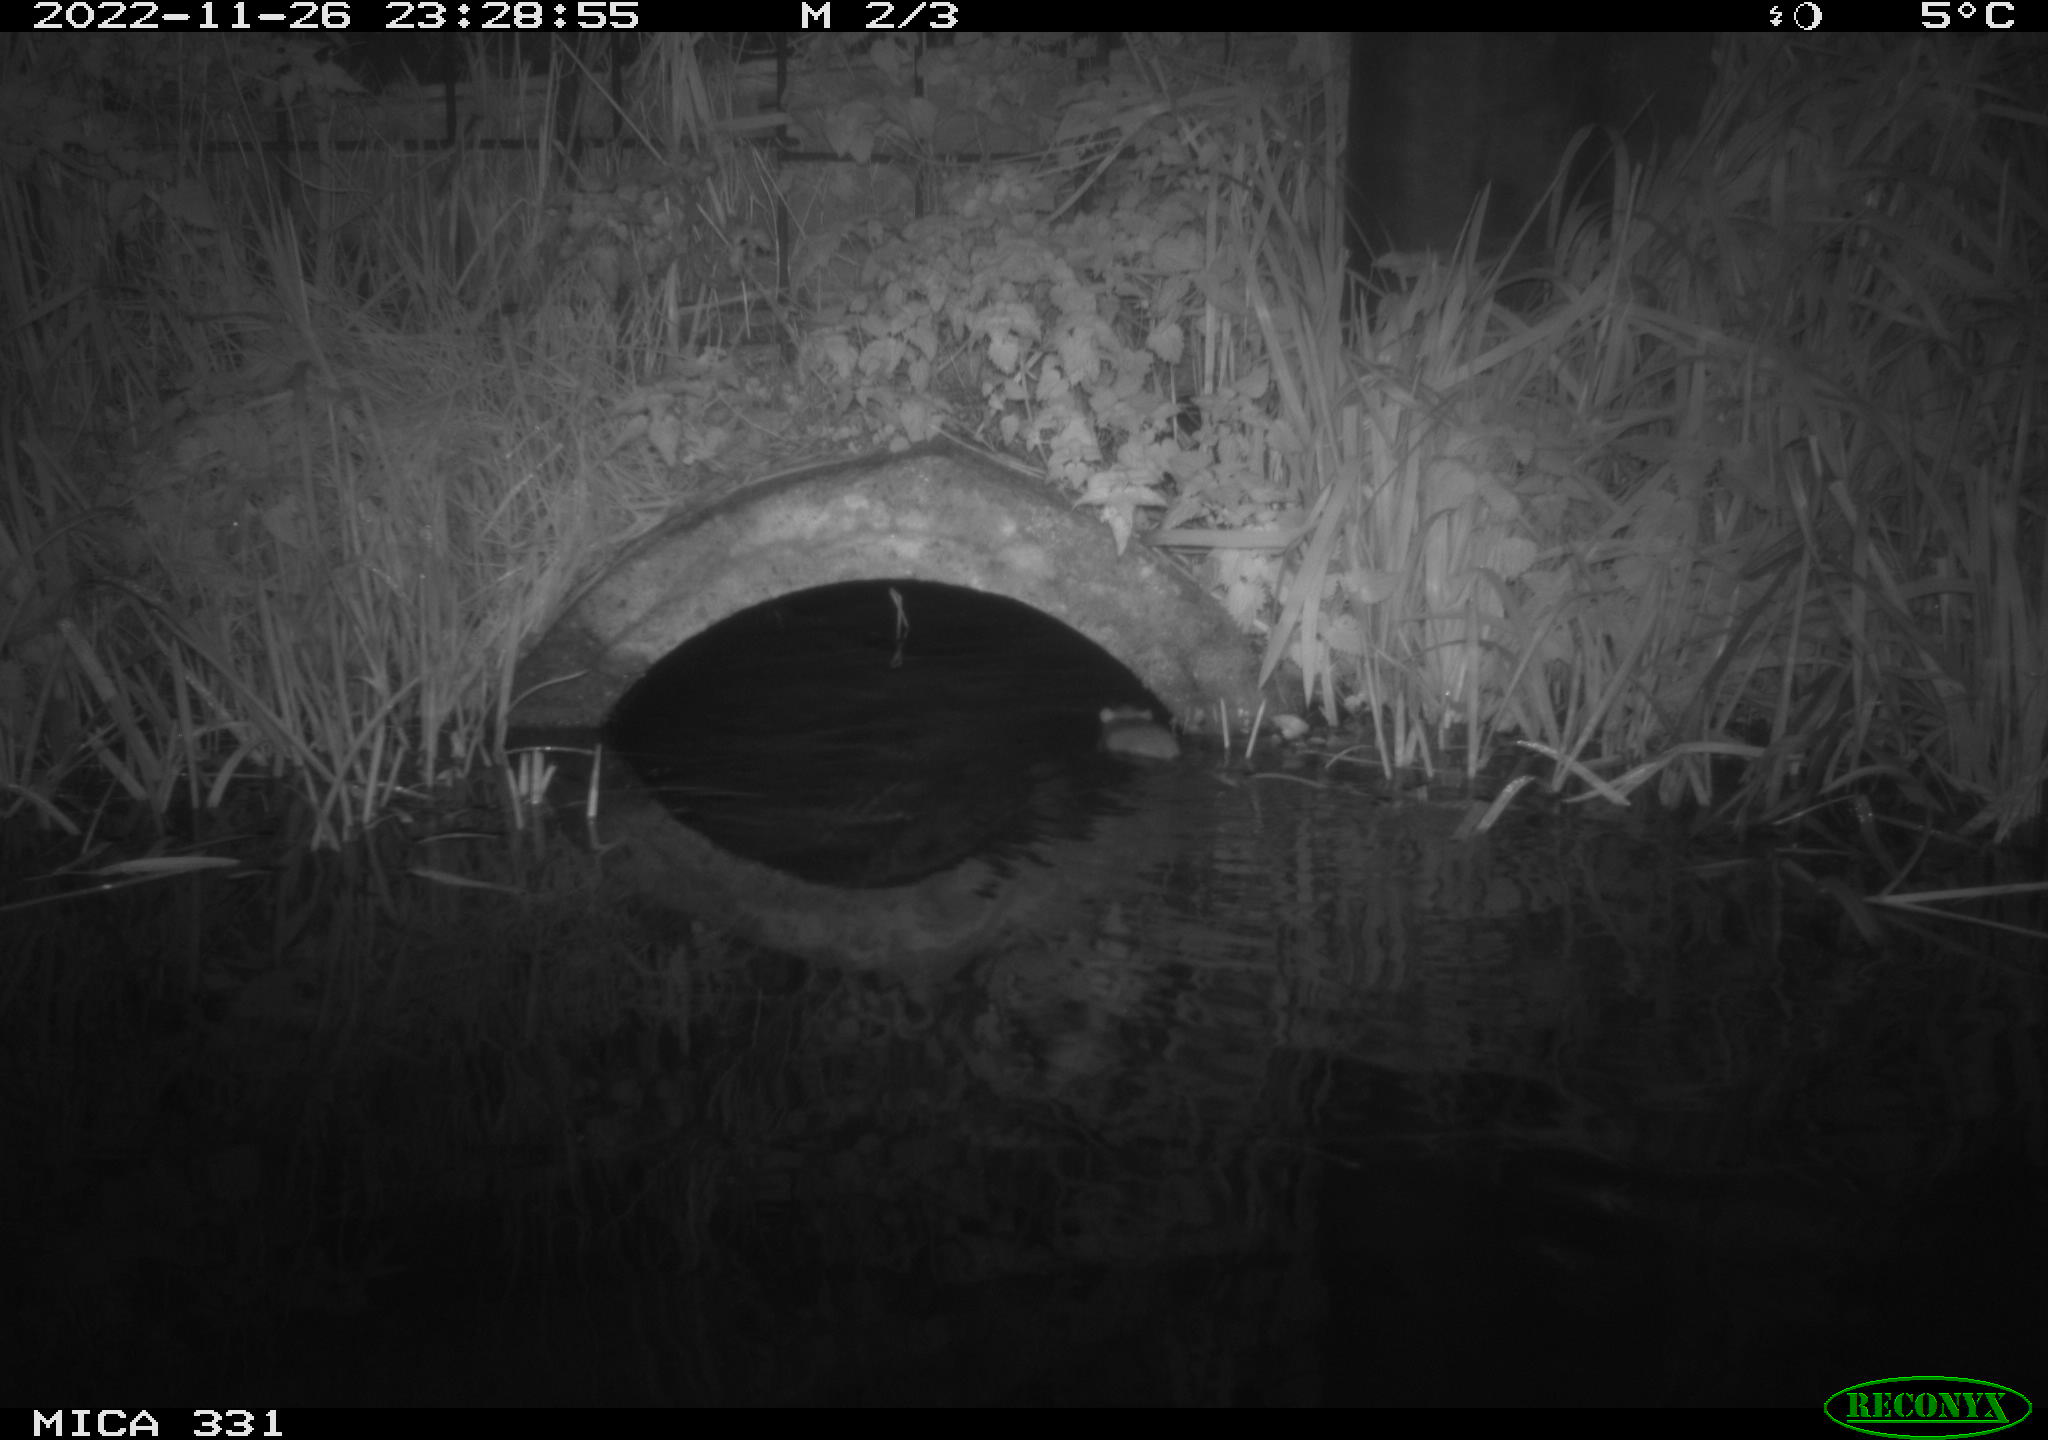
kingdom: Animalia
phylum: Chordata
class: Mammalia
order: Rodentia
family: Muridae
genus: Rattus
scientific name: Rattus norvegicus
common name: Brown rat
